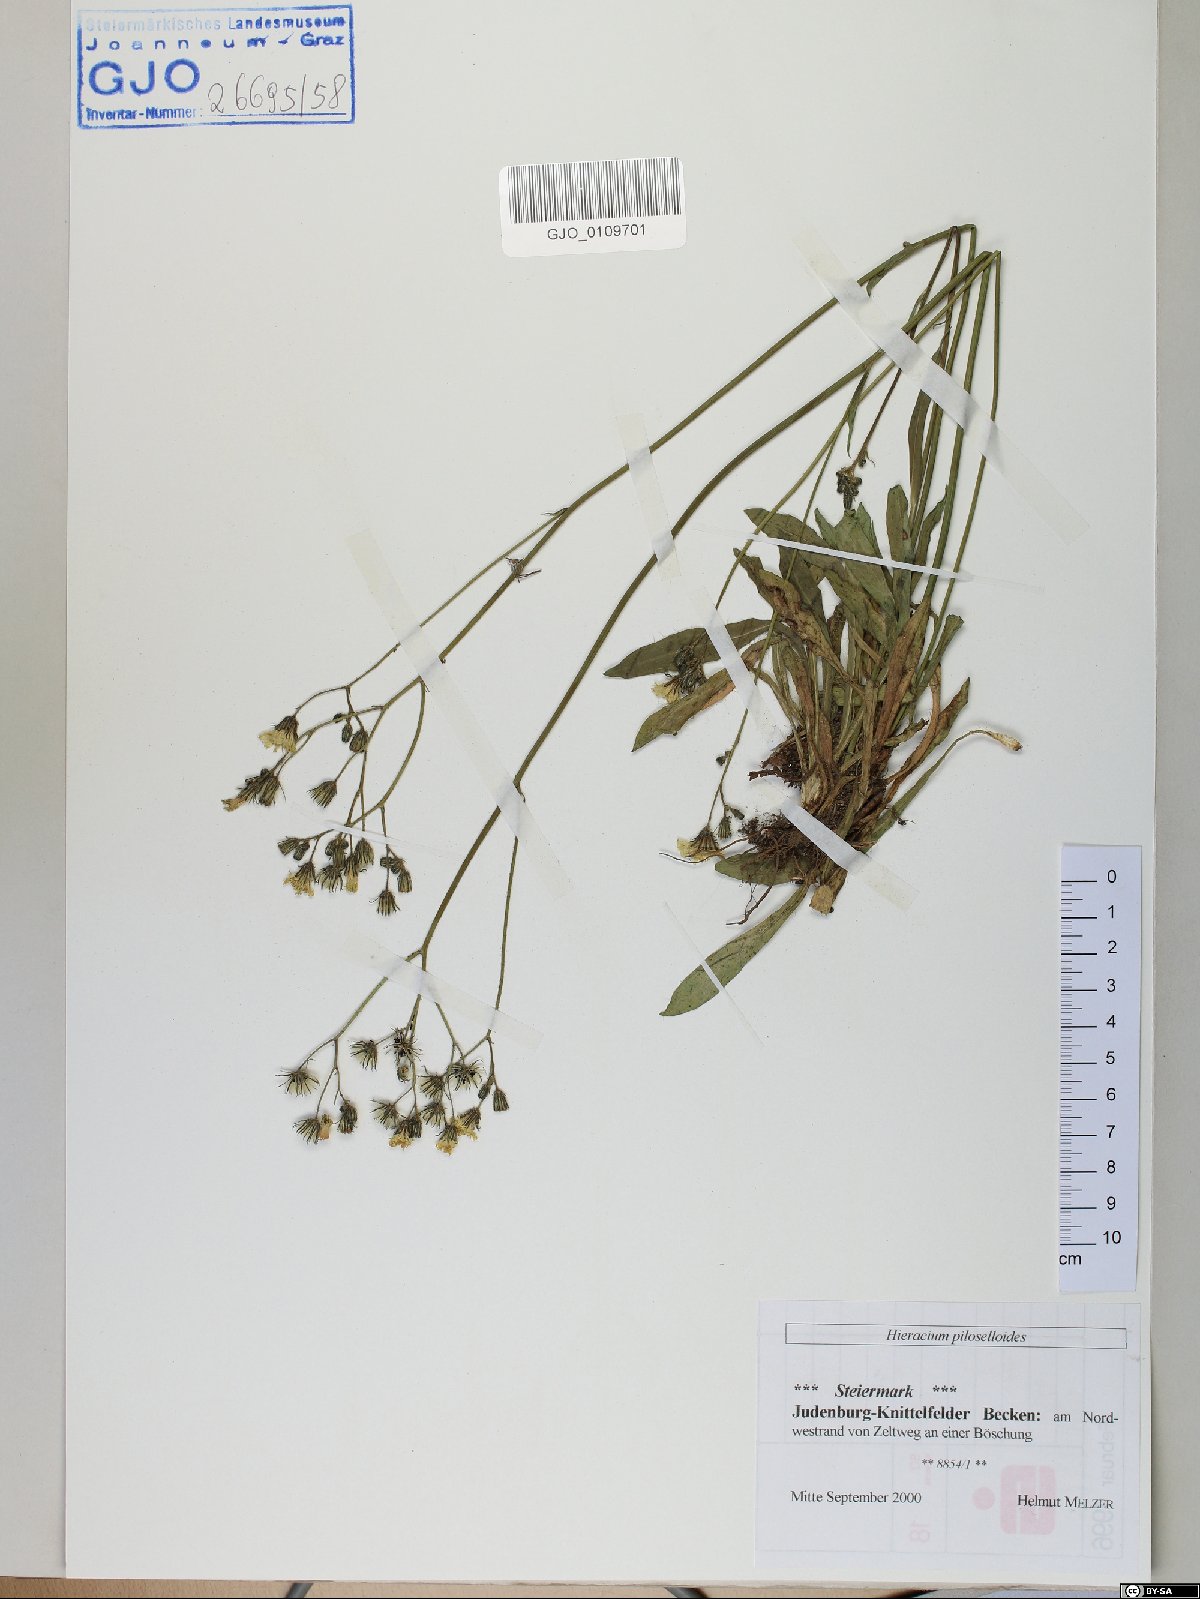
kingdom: Plantae
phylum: Tracheophyta
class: Magnoliopsida
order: Asterales
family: Asteraceae
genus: Pilosella
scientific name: Pilosella piloselloides
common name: Glaucous king-devil
